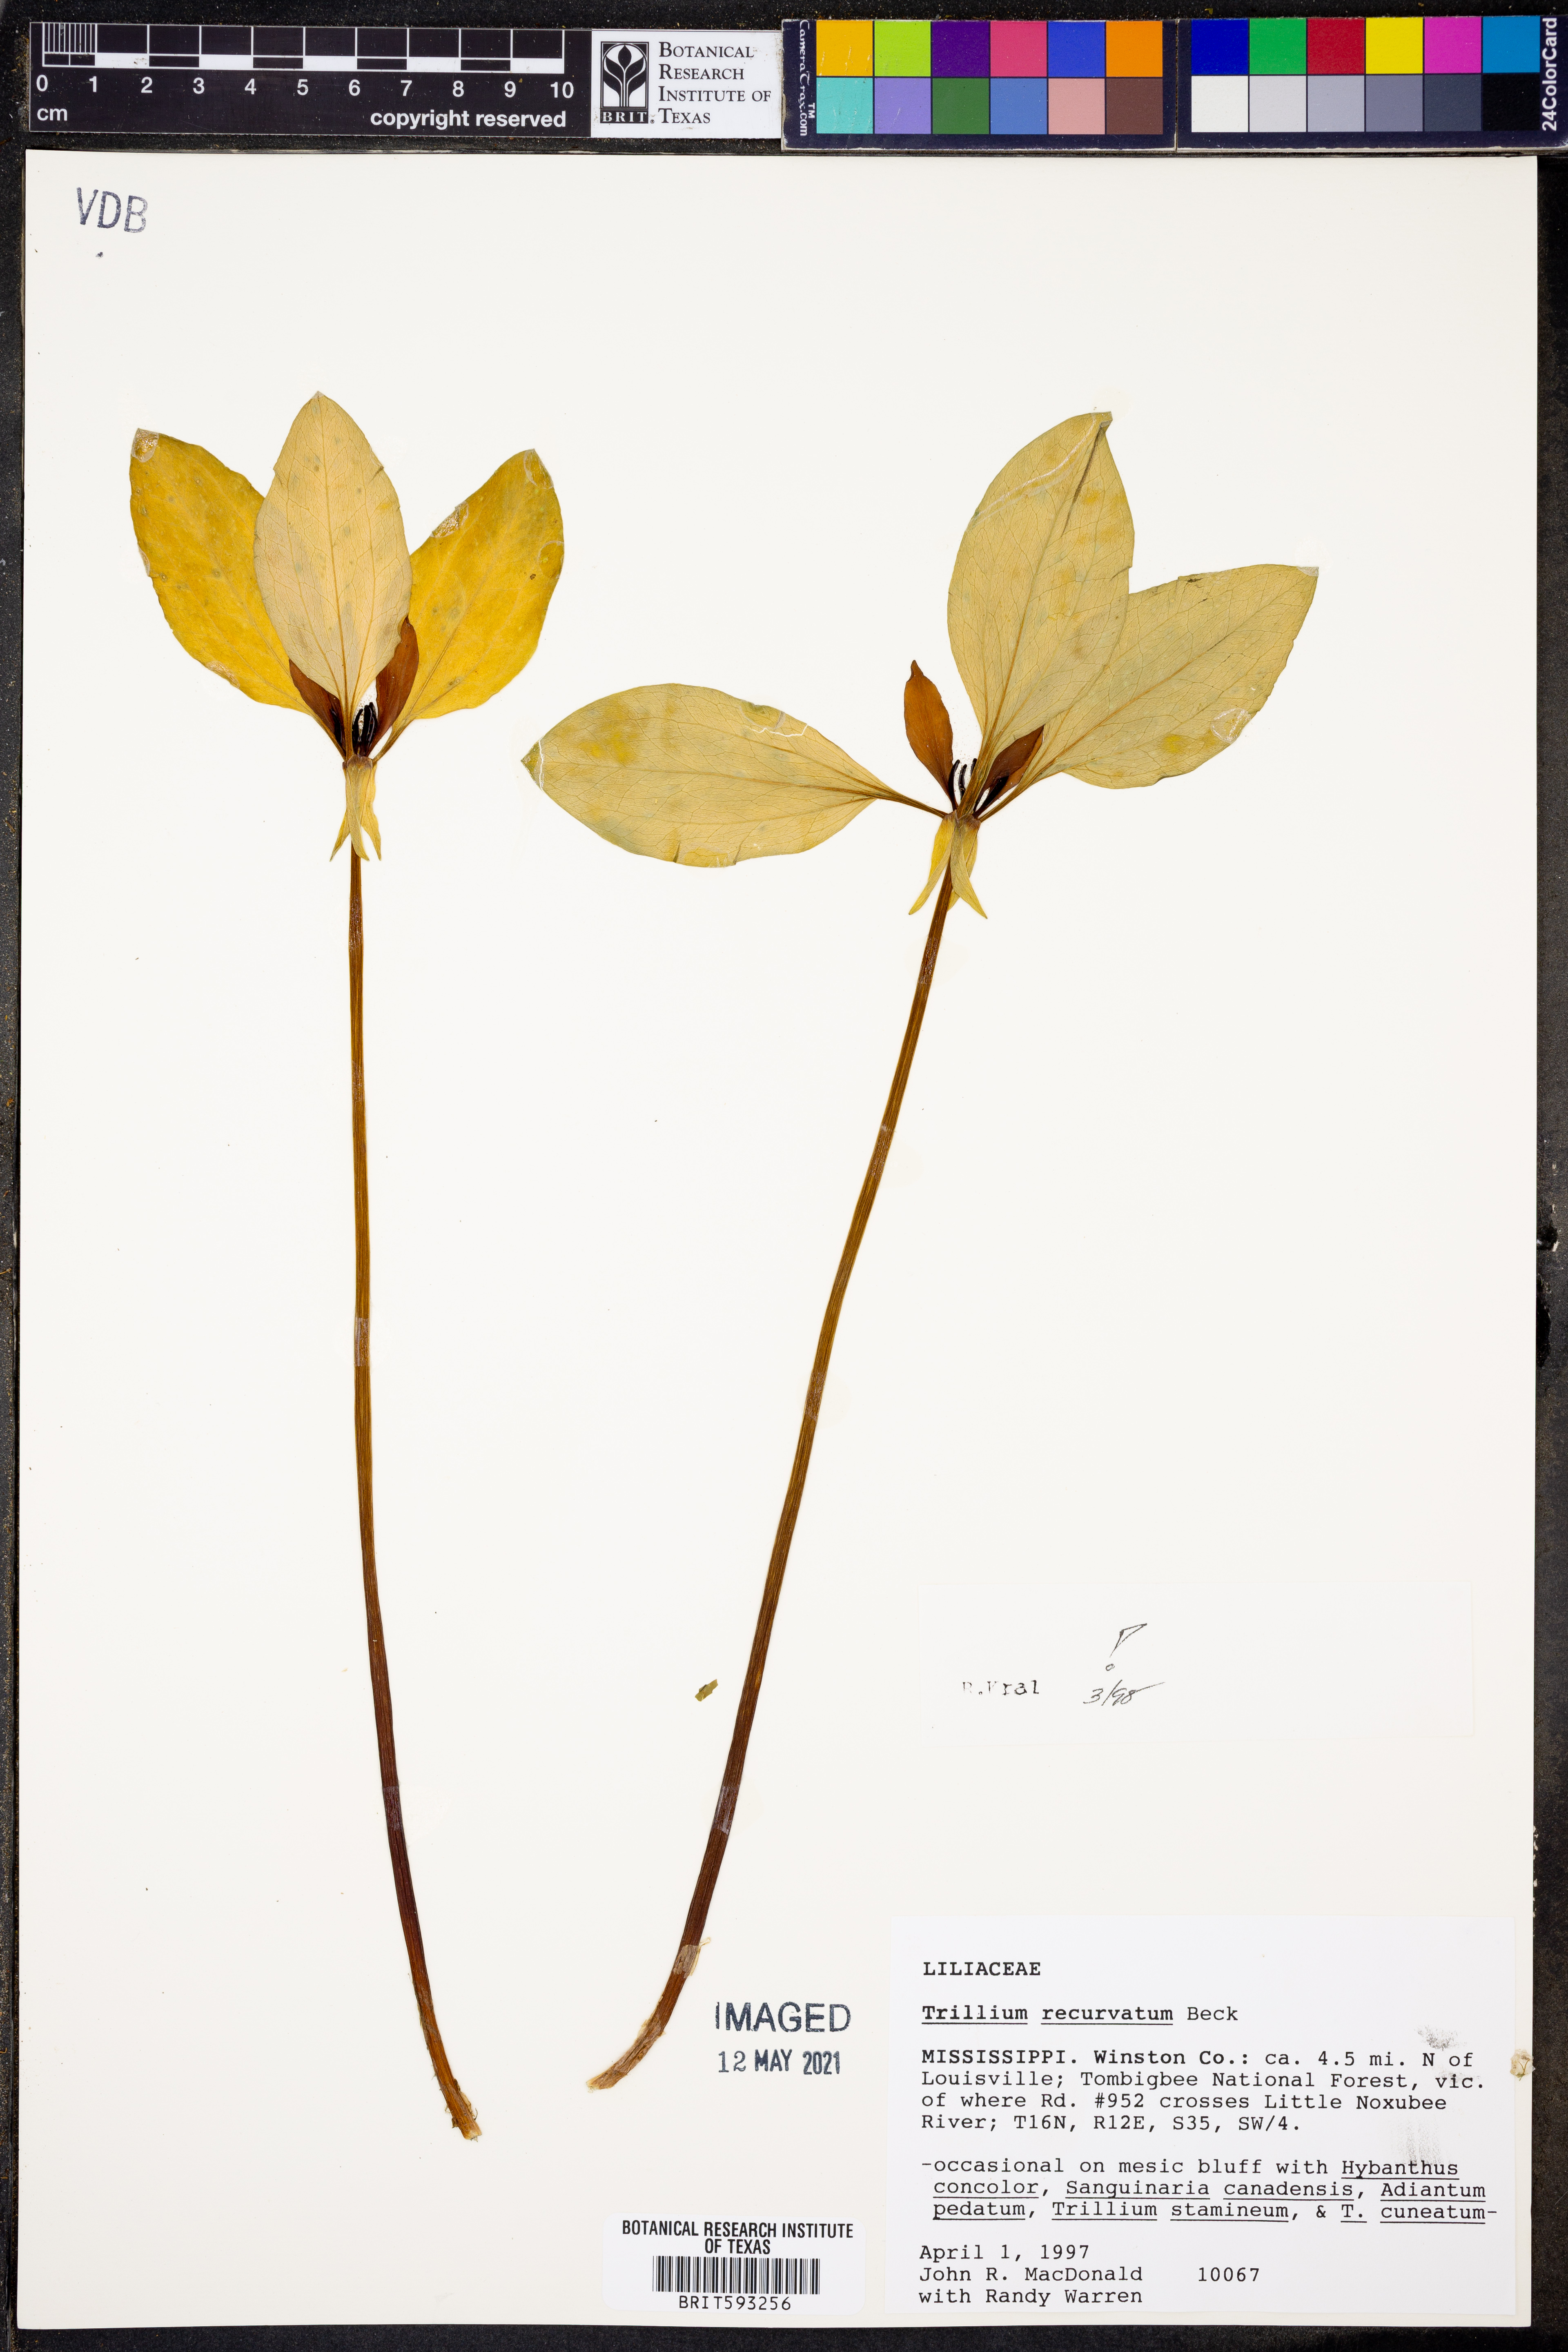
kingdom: Plantae
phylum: Tracheophyta
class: Liliopsida
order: Liliales
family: Melanthiaceae
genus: Trillium
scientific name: Trillium recurvatum
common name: Bloody butcher
